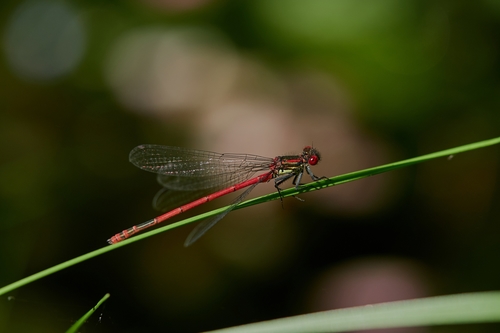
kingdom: Animalia
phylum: Arthropoda
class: Insecta
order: Odonata
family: Coenagrionidae
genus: Pyrrhosoma
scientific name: Pyrrhosoma nymphula
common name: Large red damsel
